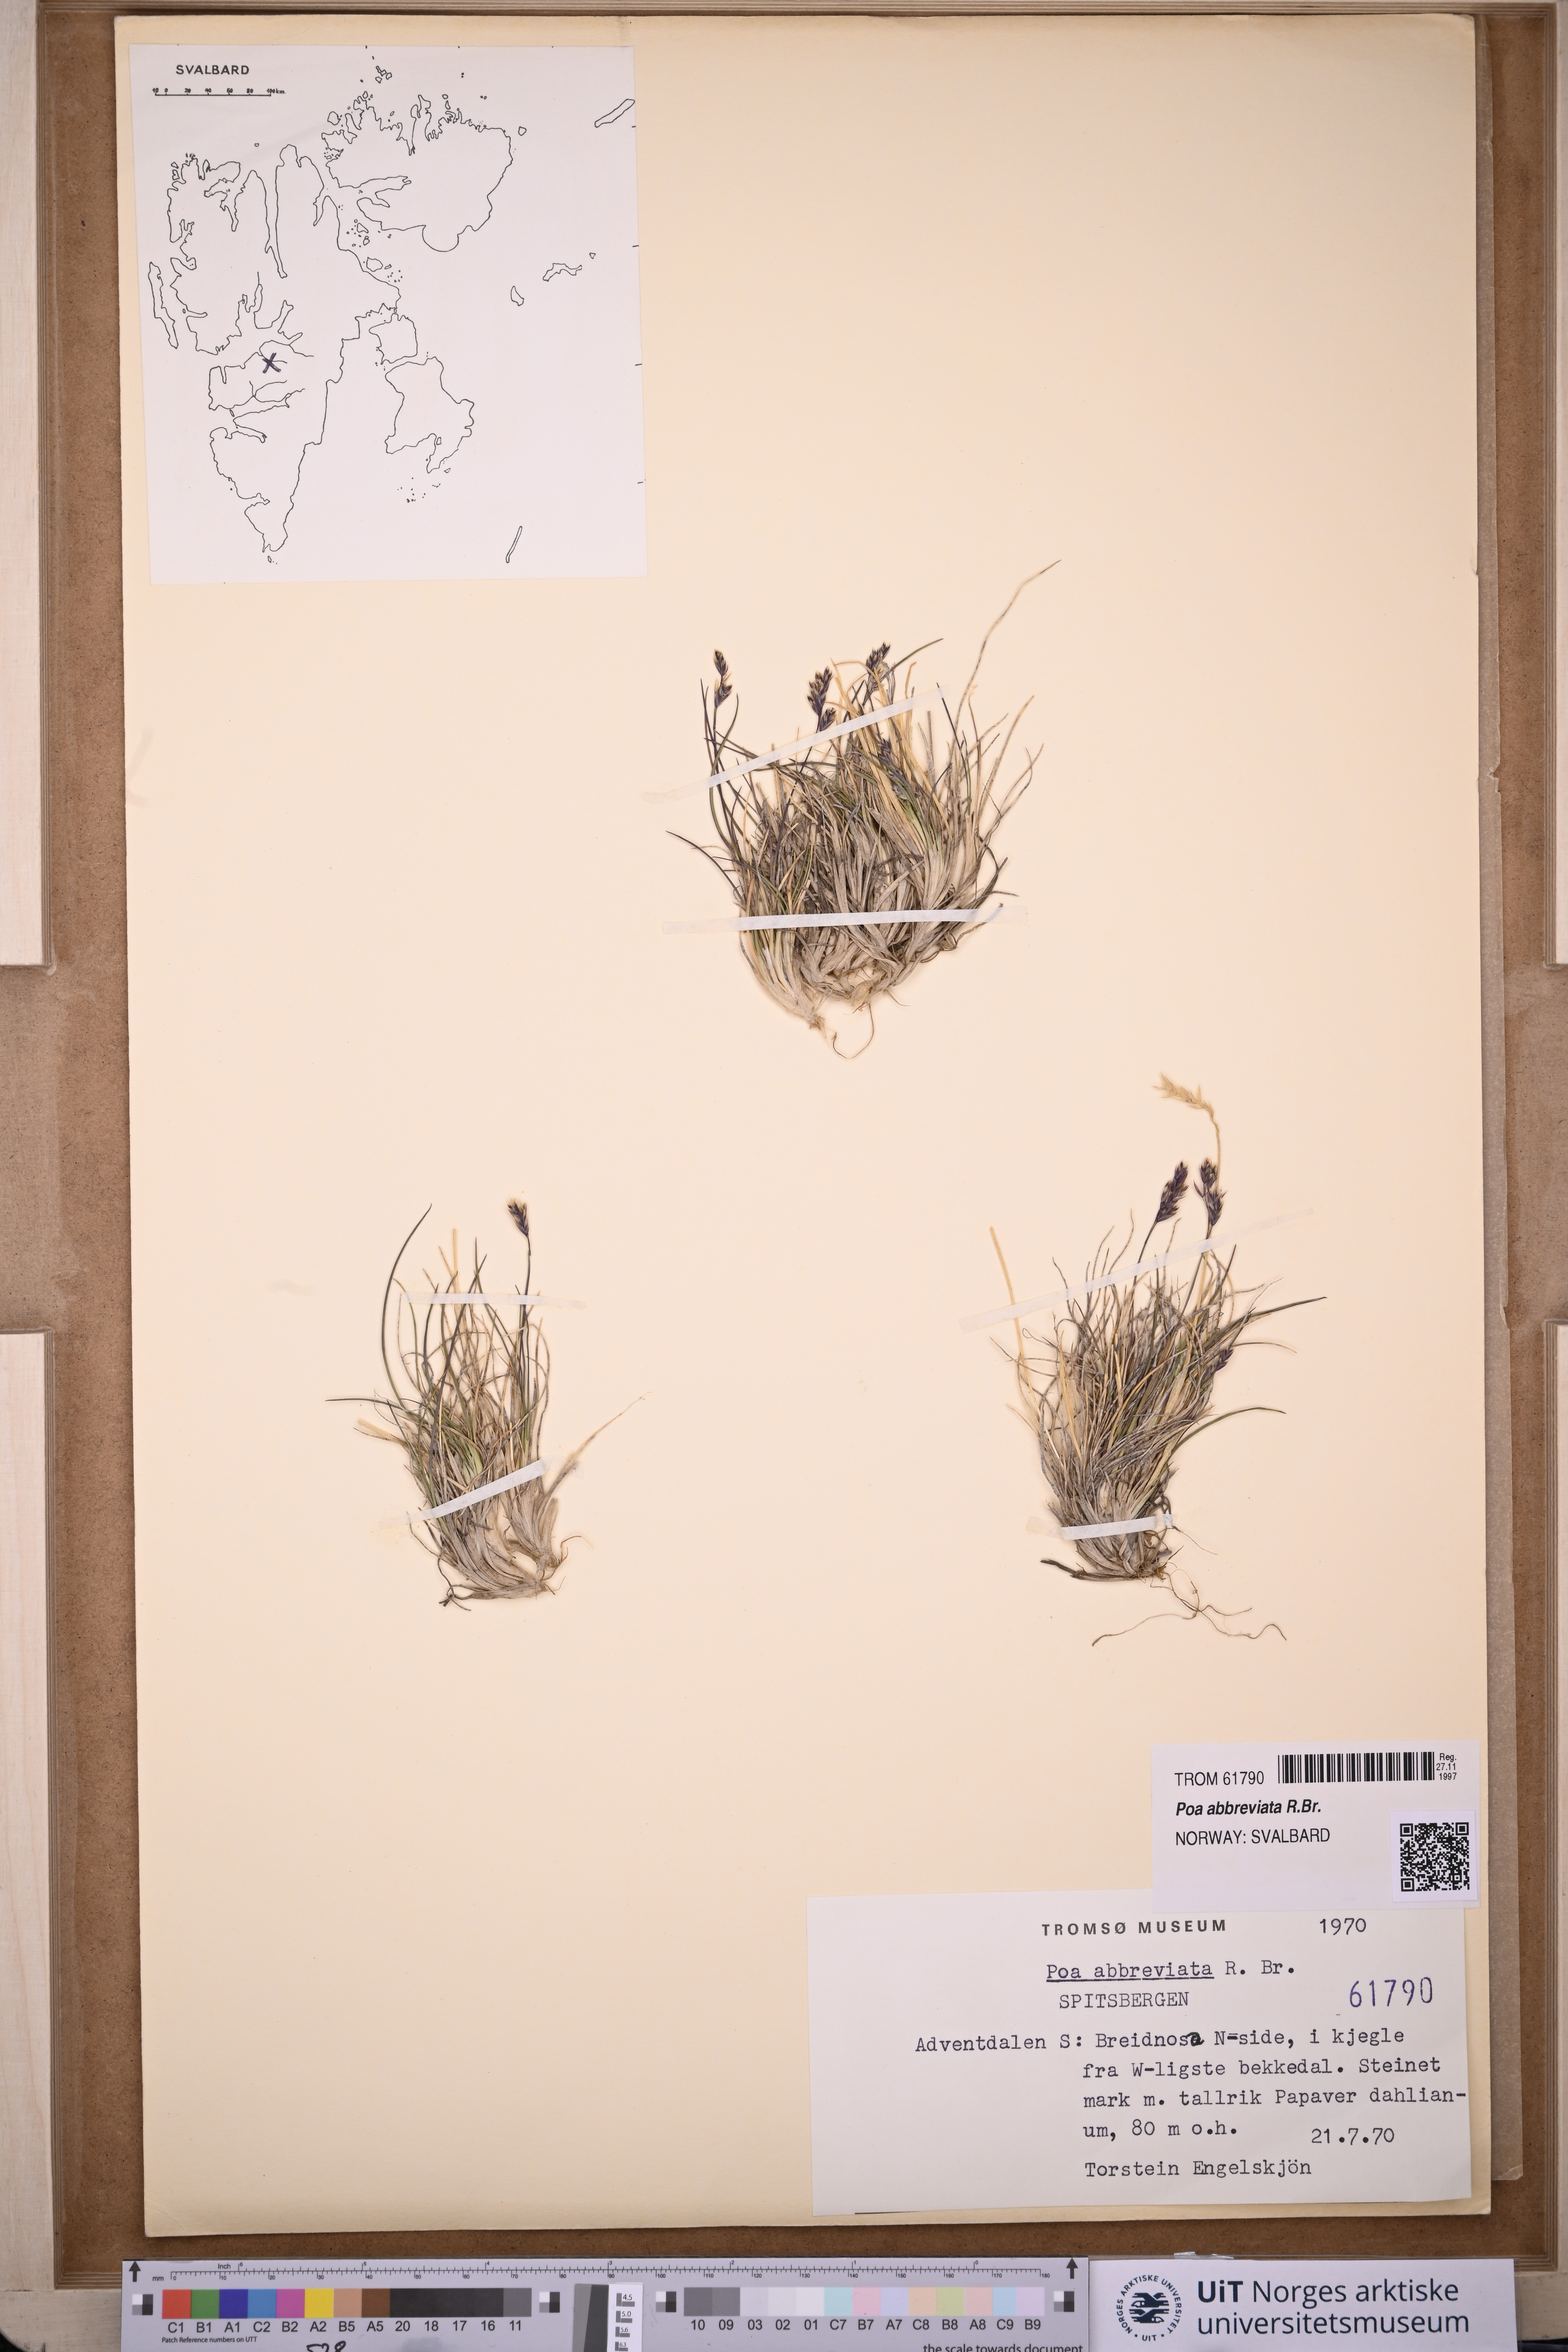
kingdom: Plantae
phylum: Tracheophyta
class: Liliopsida
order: Poales
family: Poaceae
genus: Poa
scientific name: Poa abbreviata
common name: Abbreviated bluegrass
